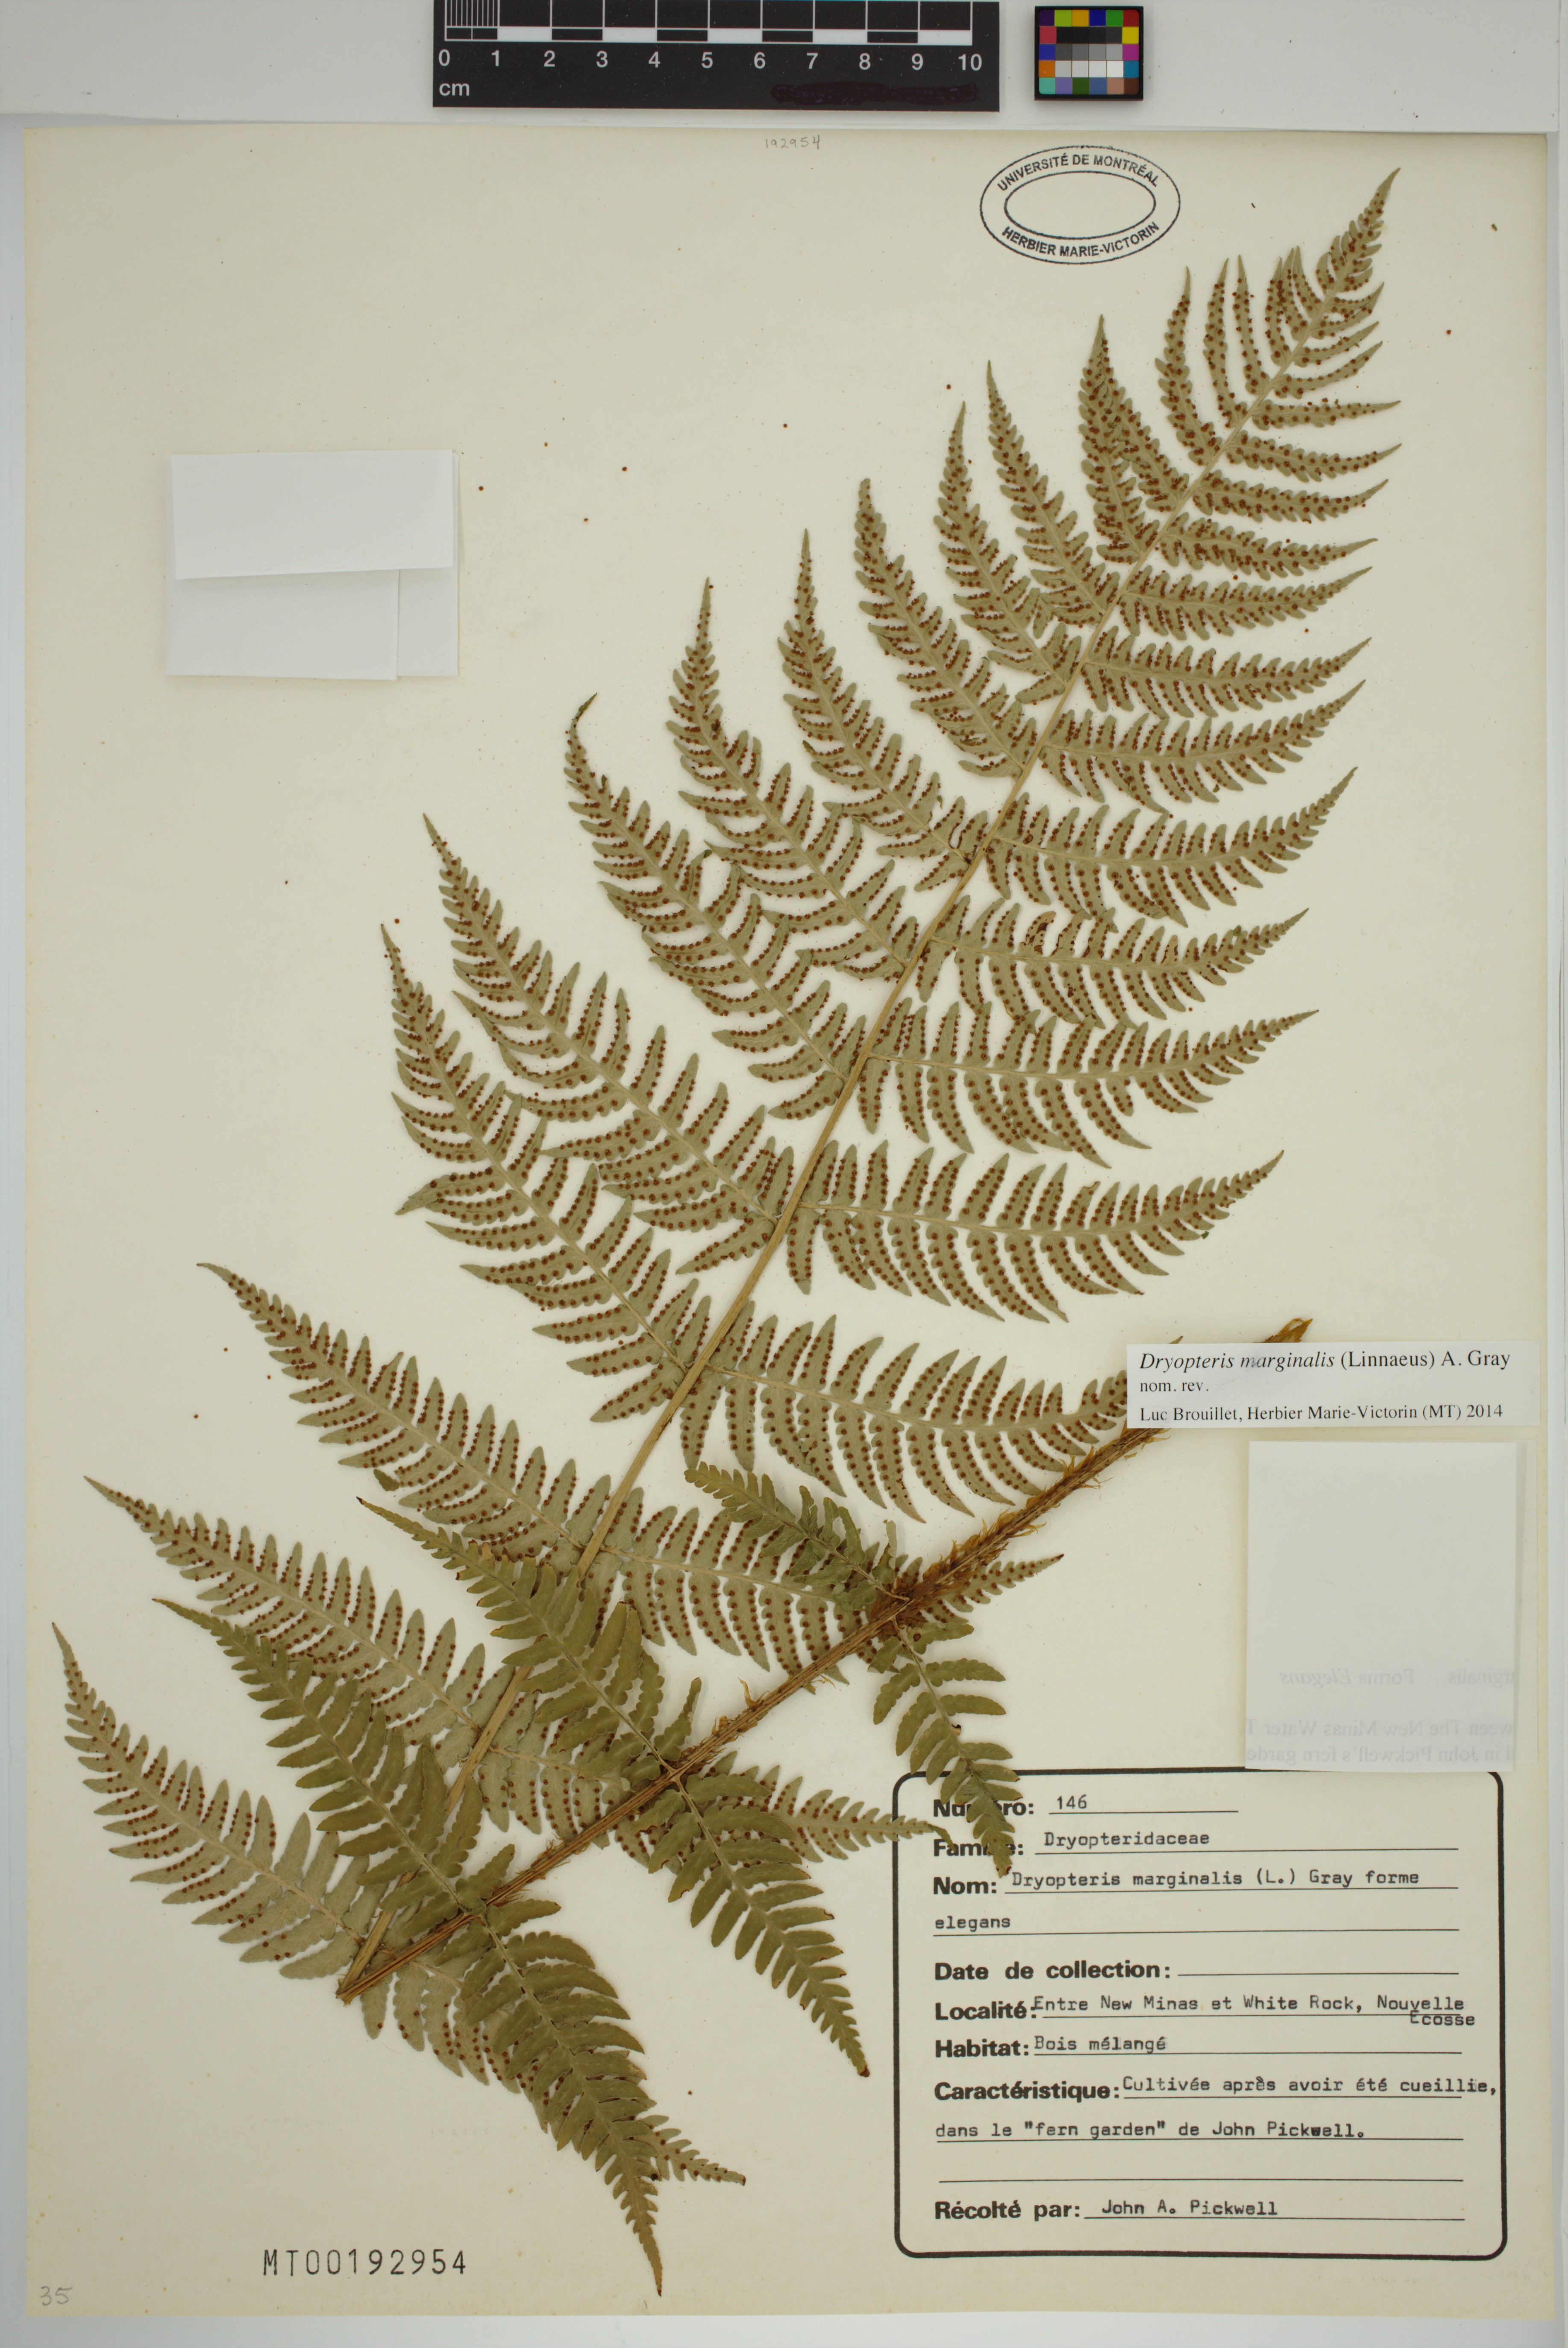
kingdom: Plantae
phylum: Tracheophyta
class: Polypodiopsida
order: Polypodiales
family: Dryopteridaceae
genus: Dryopteris
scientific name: Dryopteris marginalis
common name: Marginal wood fern
